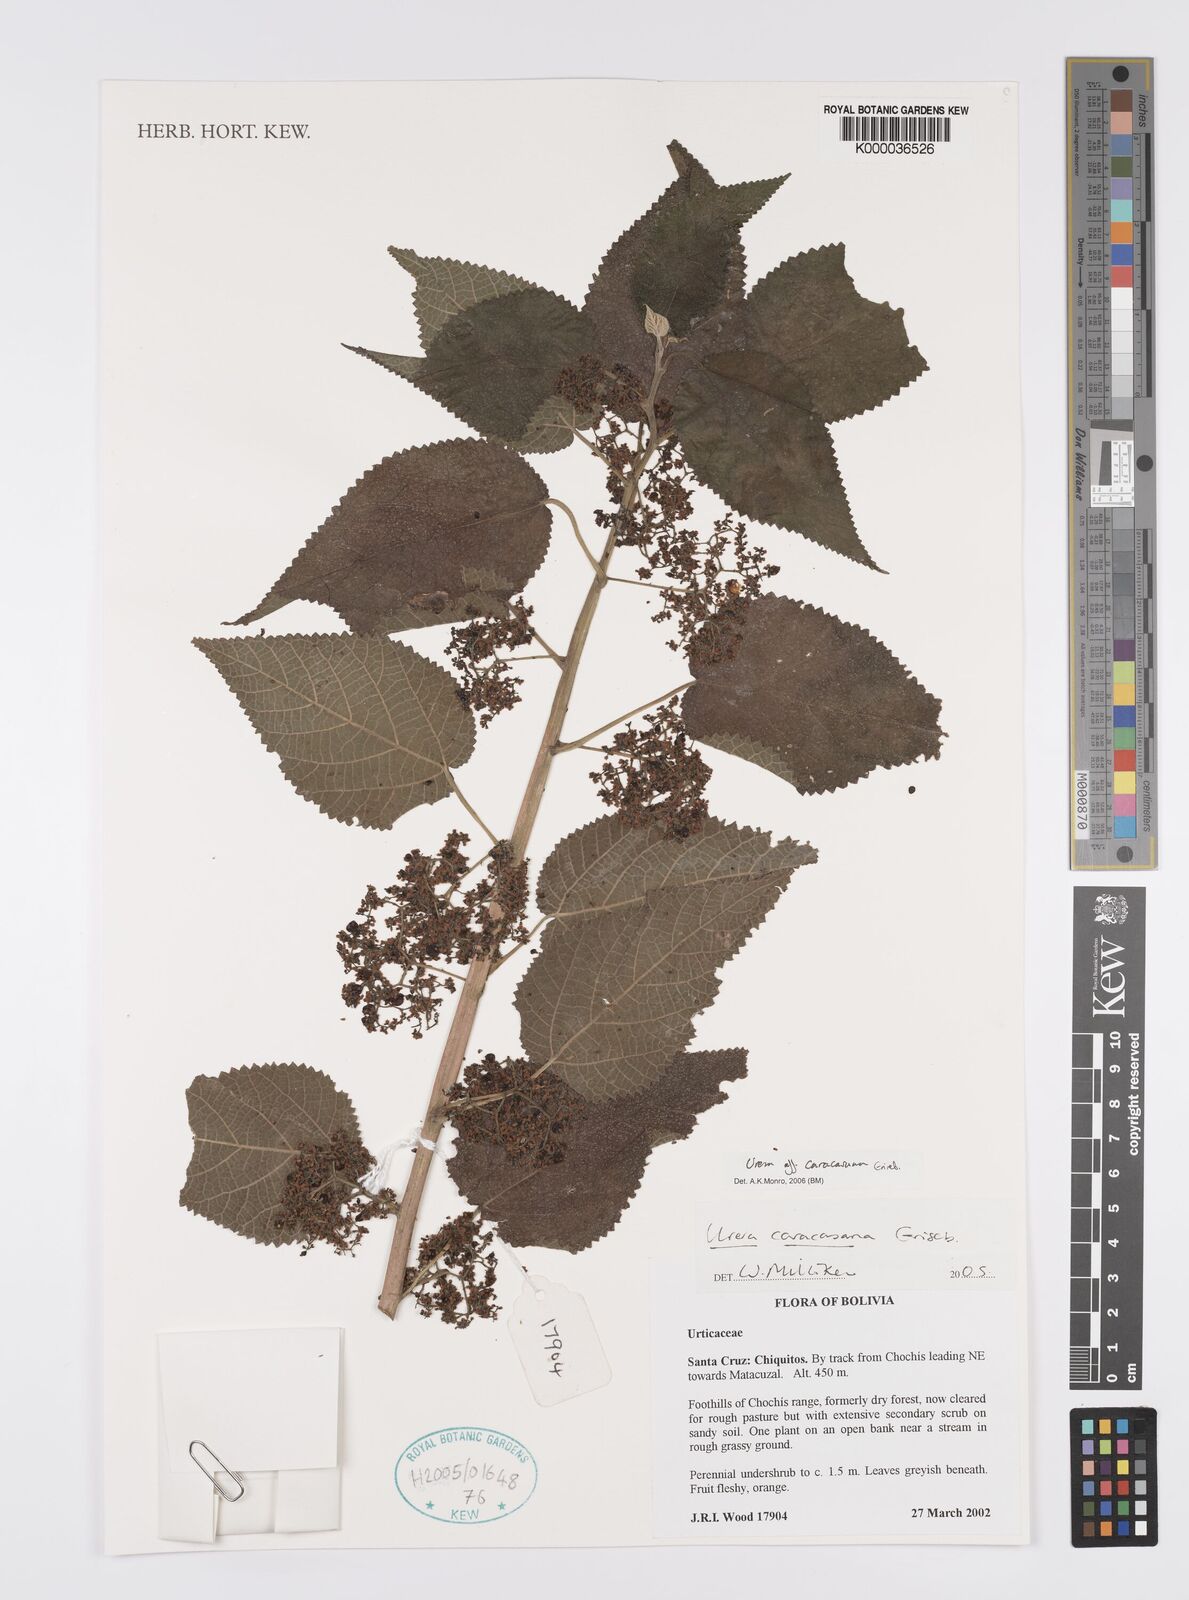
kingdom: Plantae
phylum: Tracheophyta
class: Magnoliopsida
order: Rosales
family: Urticaceae
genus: Urera
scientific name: Urera caracasana
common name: Flameberry
